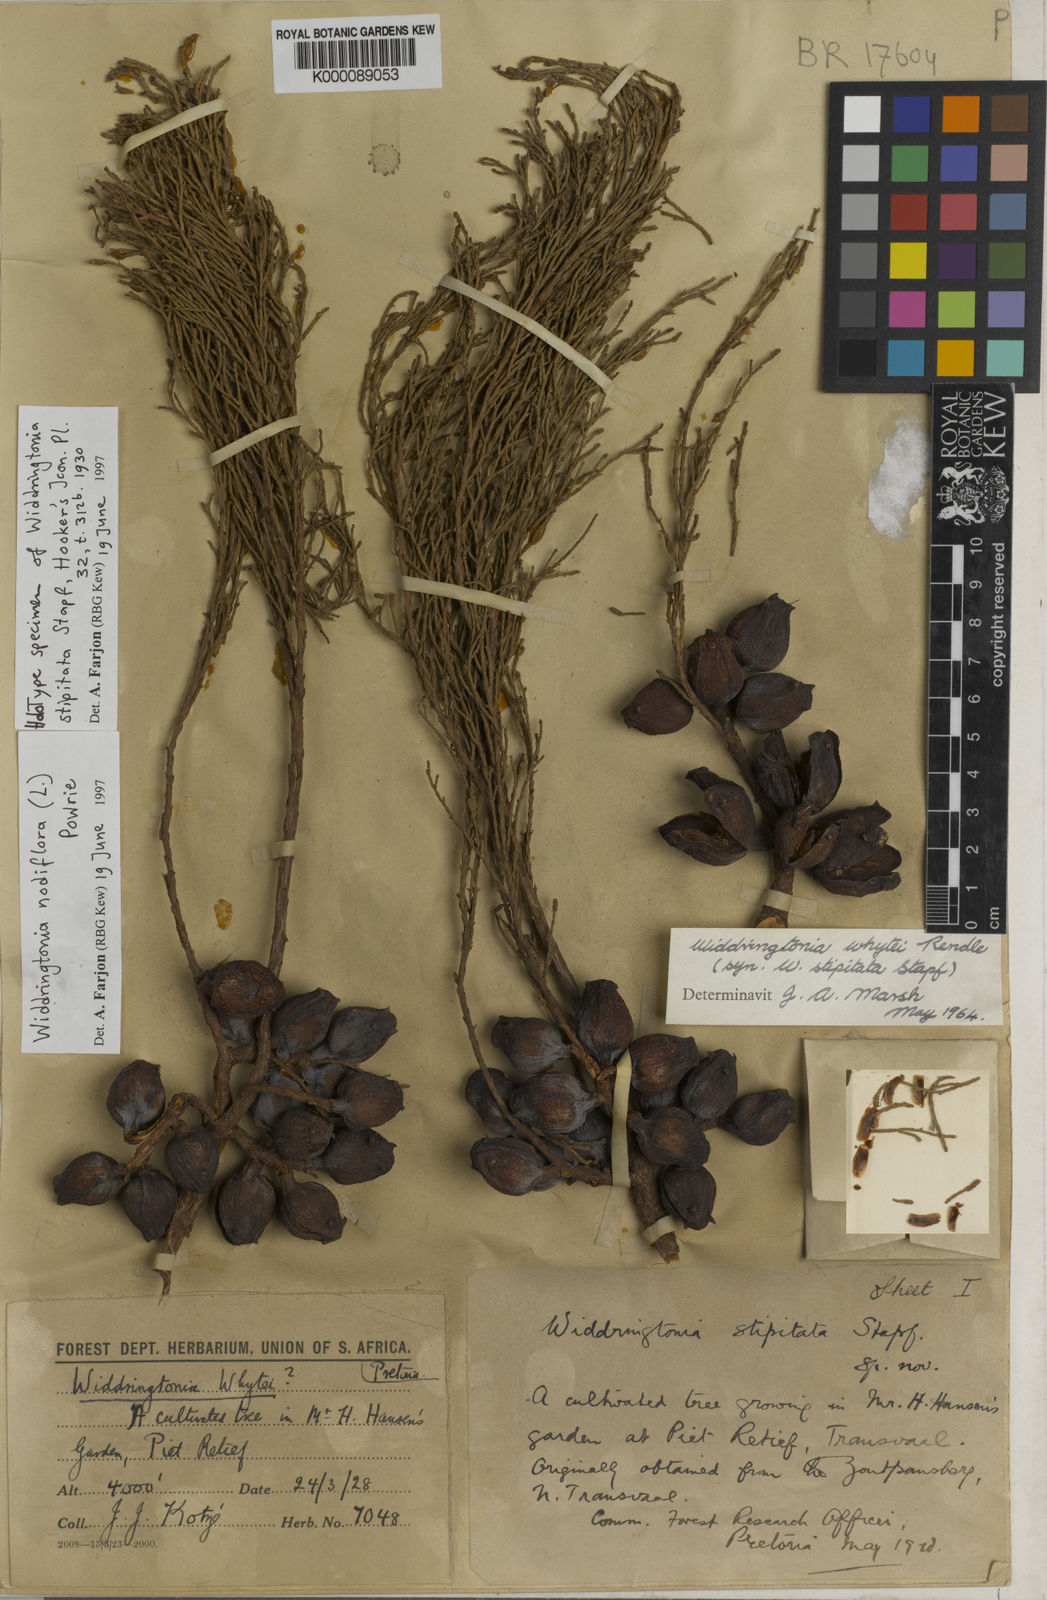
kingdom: Plantae
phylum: Tracheophyta
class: Pinopsida
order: Pinales
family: Cupressaceae
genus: Widdringtonia
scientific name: Widdringtonia nodiflora
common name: Cape cypress
